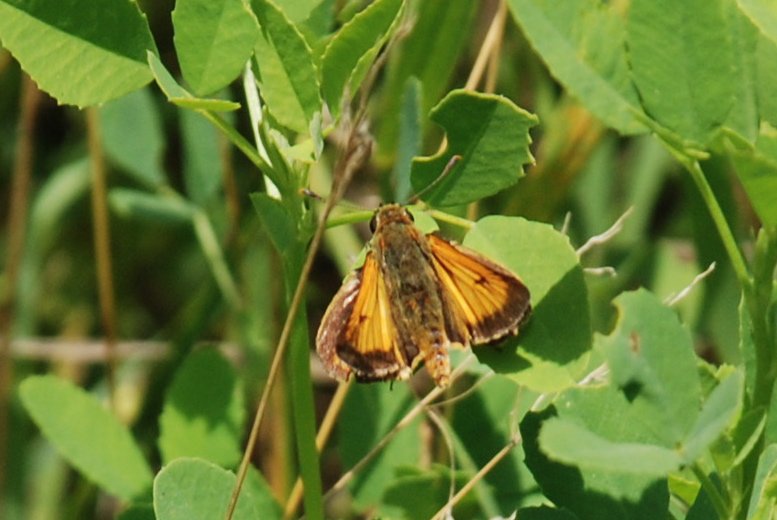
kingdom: Animalia
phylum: Arthropoda
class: Insecta
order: Lepidoptera
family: Hesperiidae
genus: Atrytone
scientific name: Atrytone delaware
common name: Delaware Skipper
